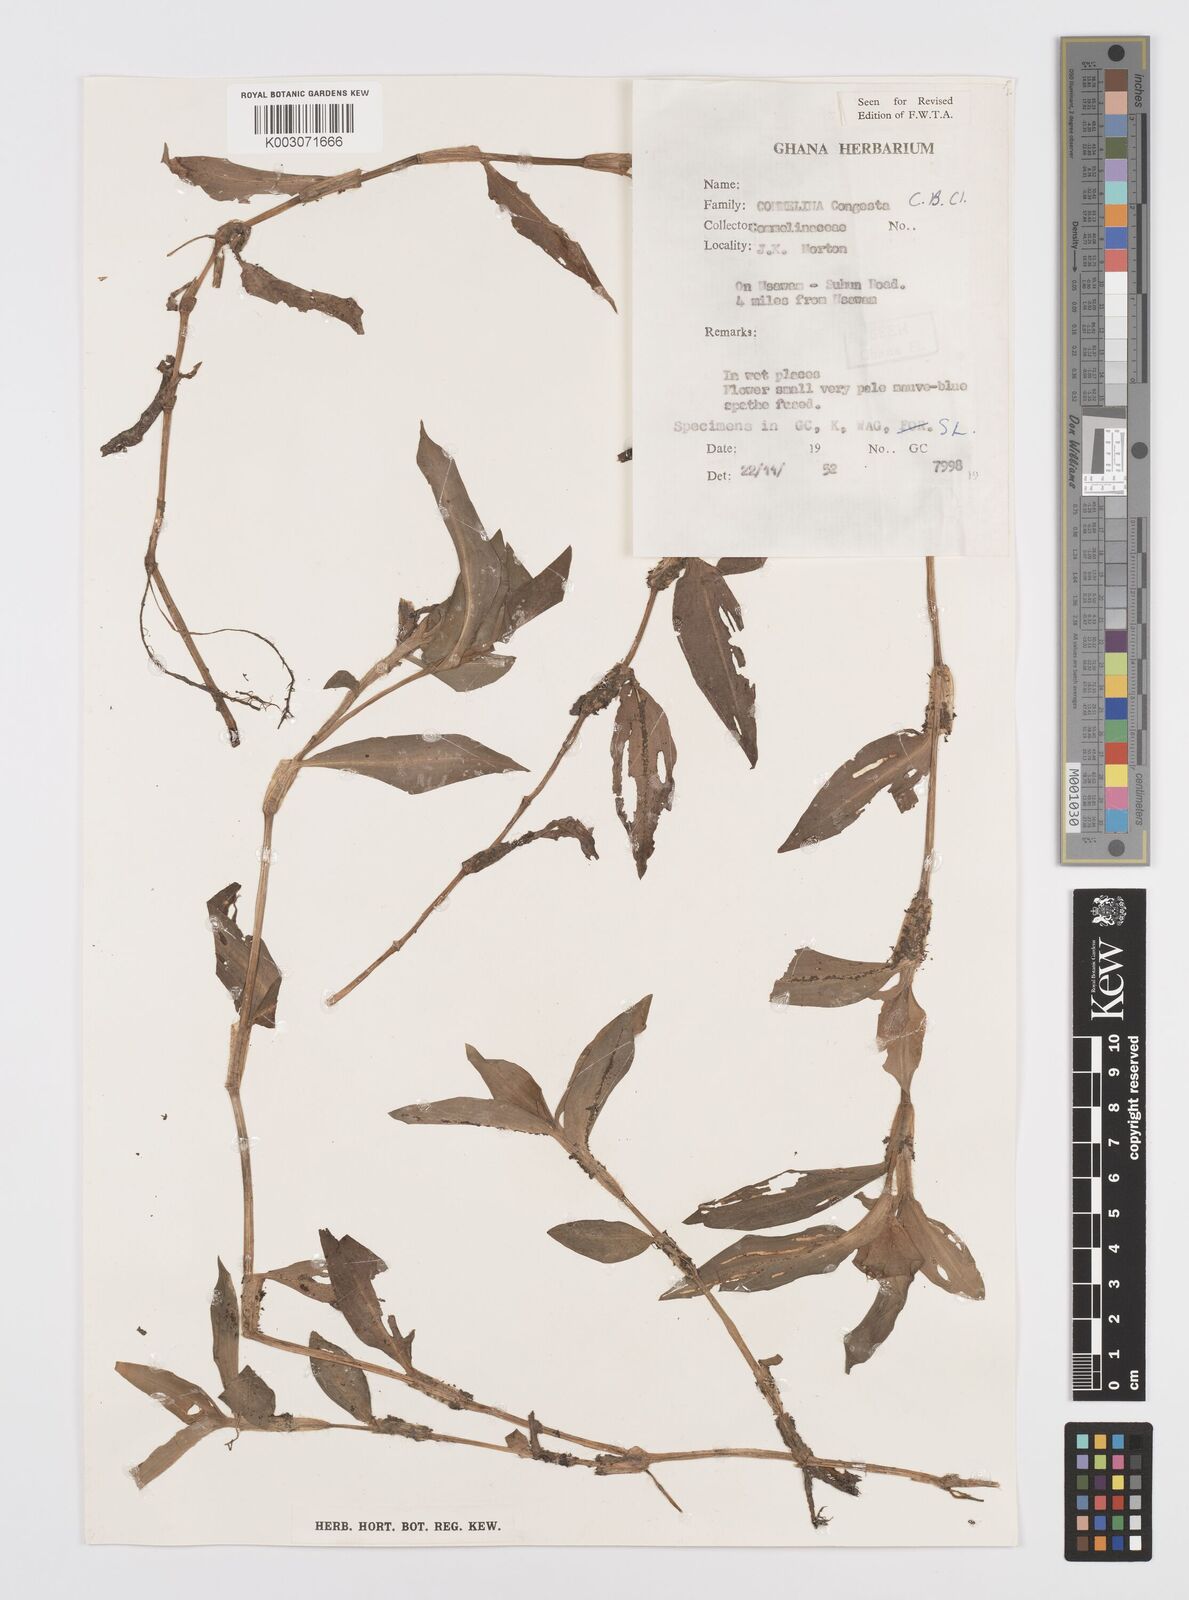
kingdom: Plantae
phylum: Tracheophyta
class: Liliopsida
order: Commelinales
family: Commelinaceae
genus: Commelina
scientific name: Commelina congesta
